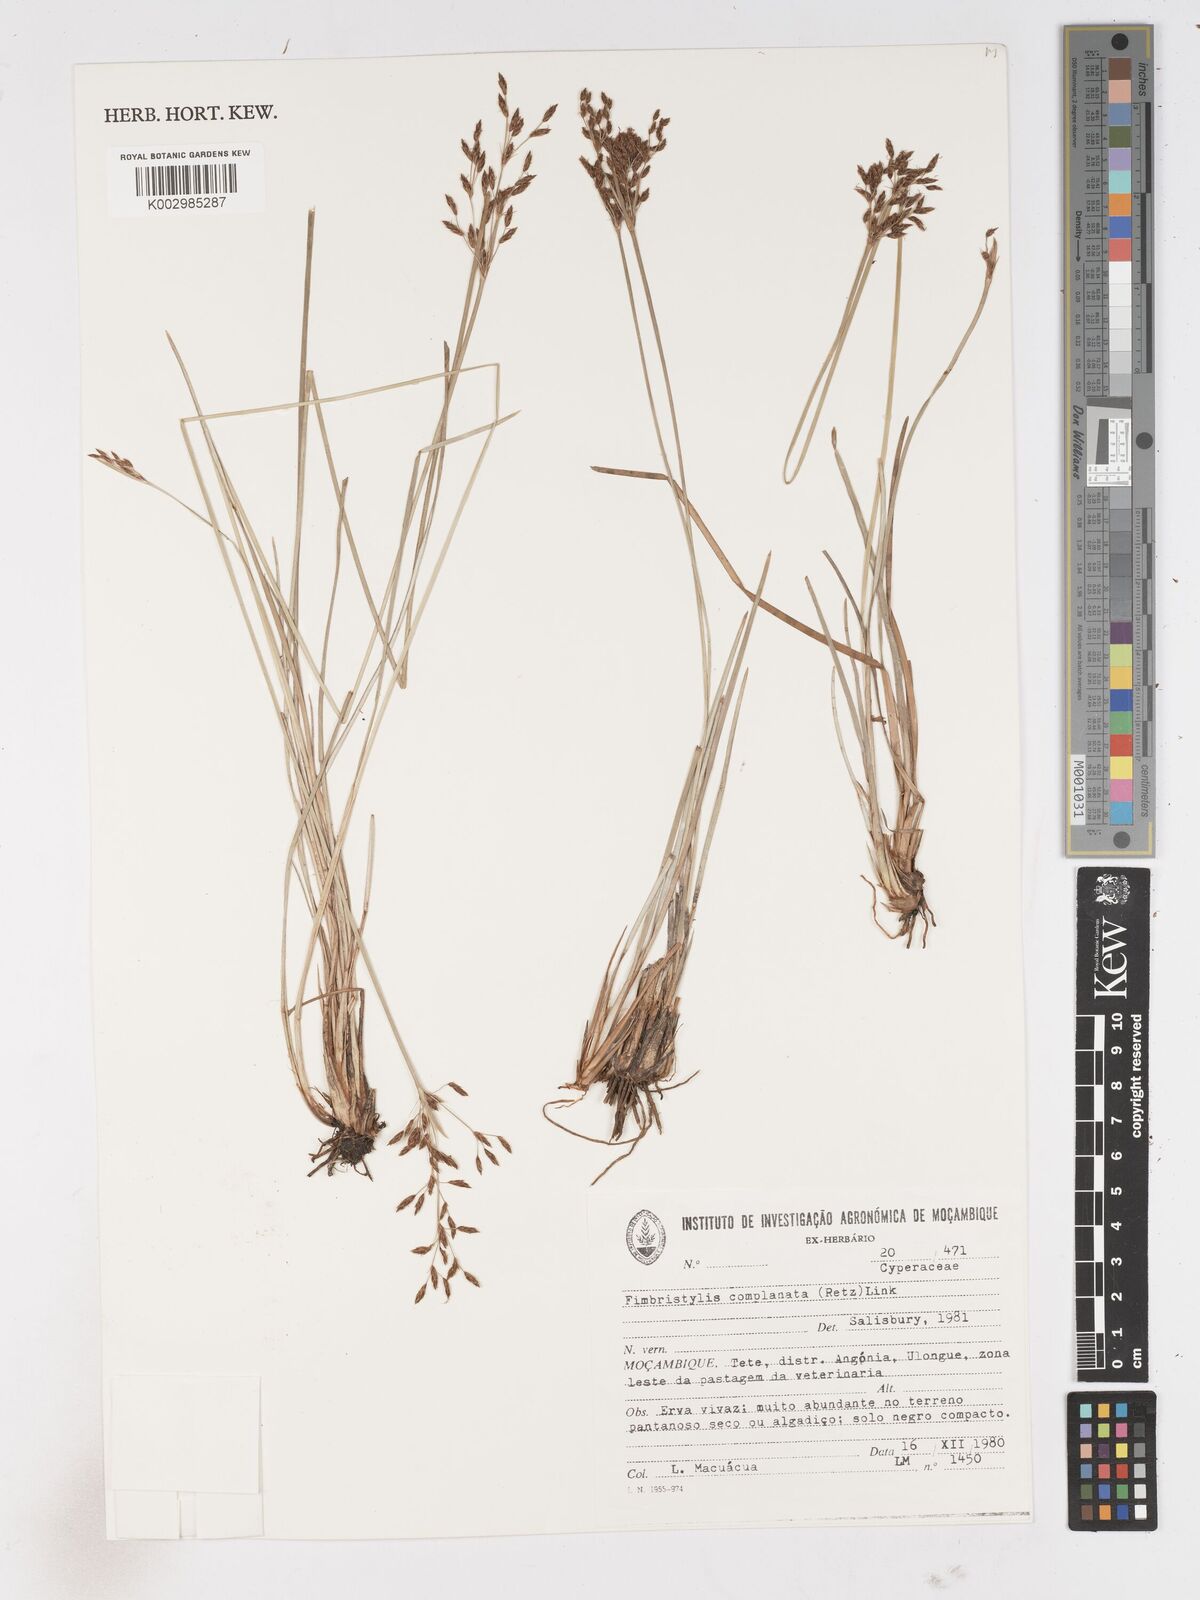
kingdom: Plantae
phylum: Tracheophyta
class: Liliopsida
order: Poales
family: Cyperaceae
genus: Fimbristylis
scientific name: Fimbristylis complanata
